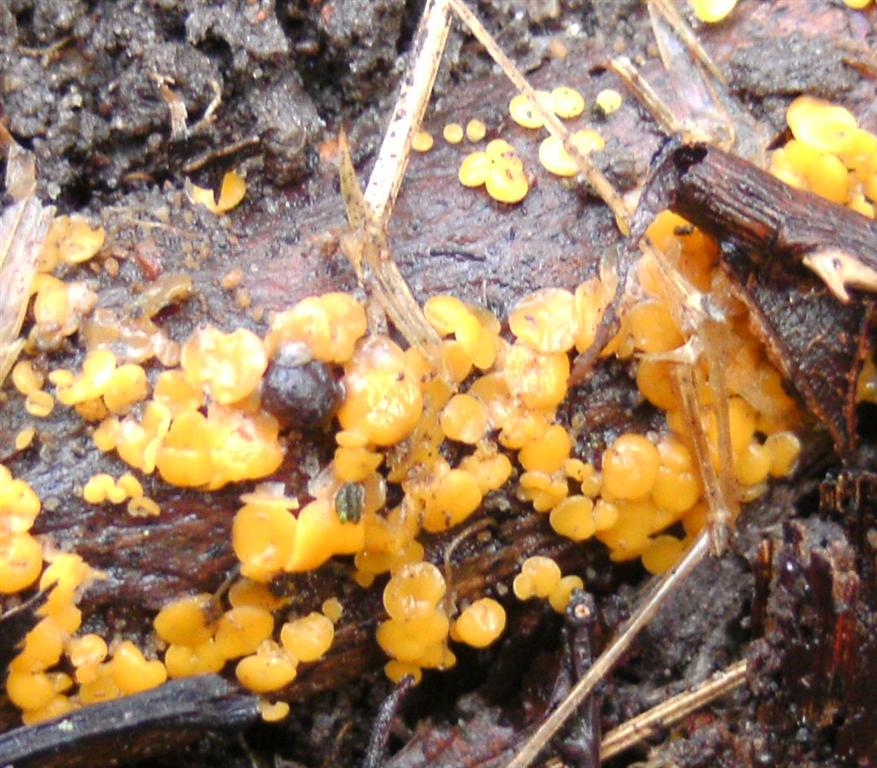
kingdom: Fungi
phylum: Ascomycota
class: Leotiomycetes
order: Helotiales
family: Pezizellaceae
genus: Calycina
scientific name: Calycina citrina
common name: almindelig gulskive
